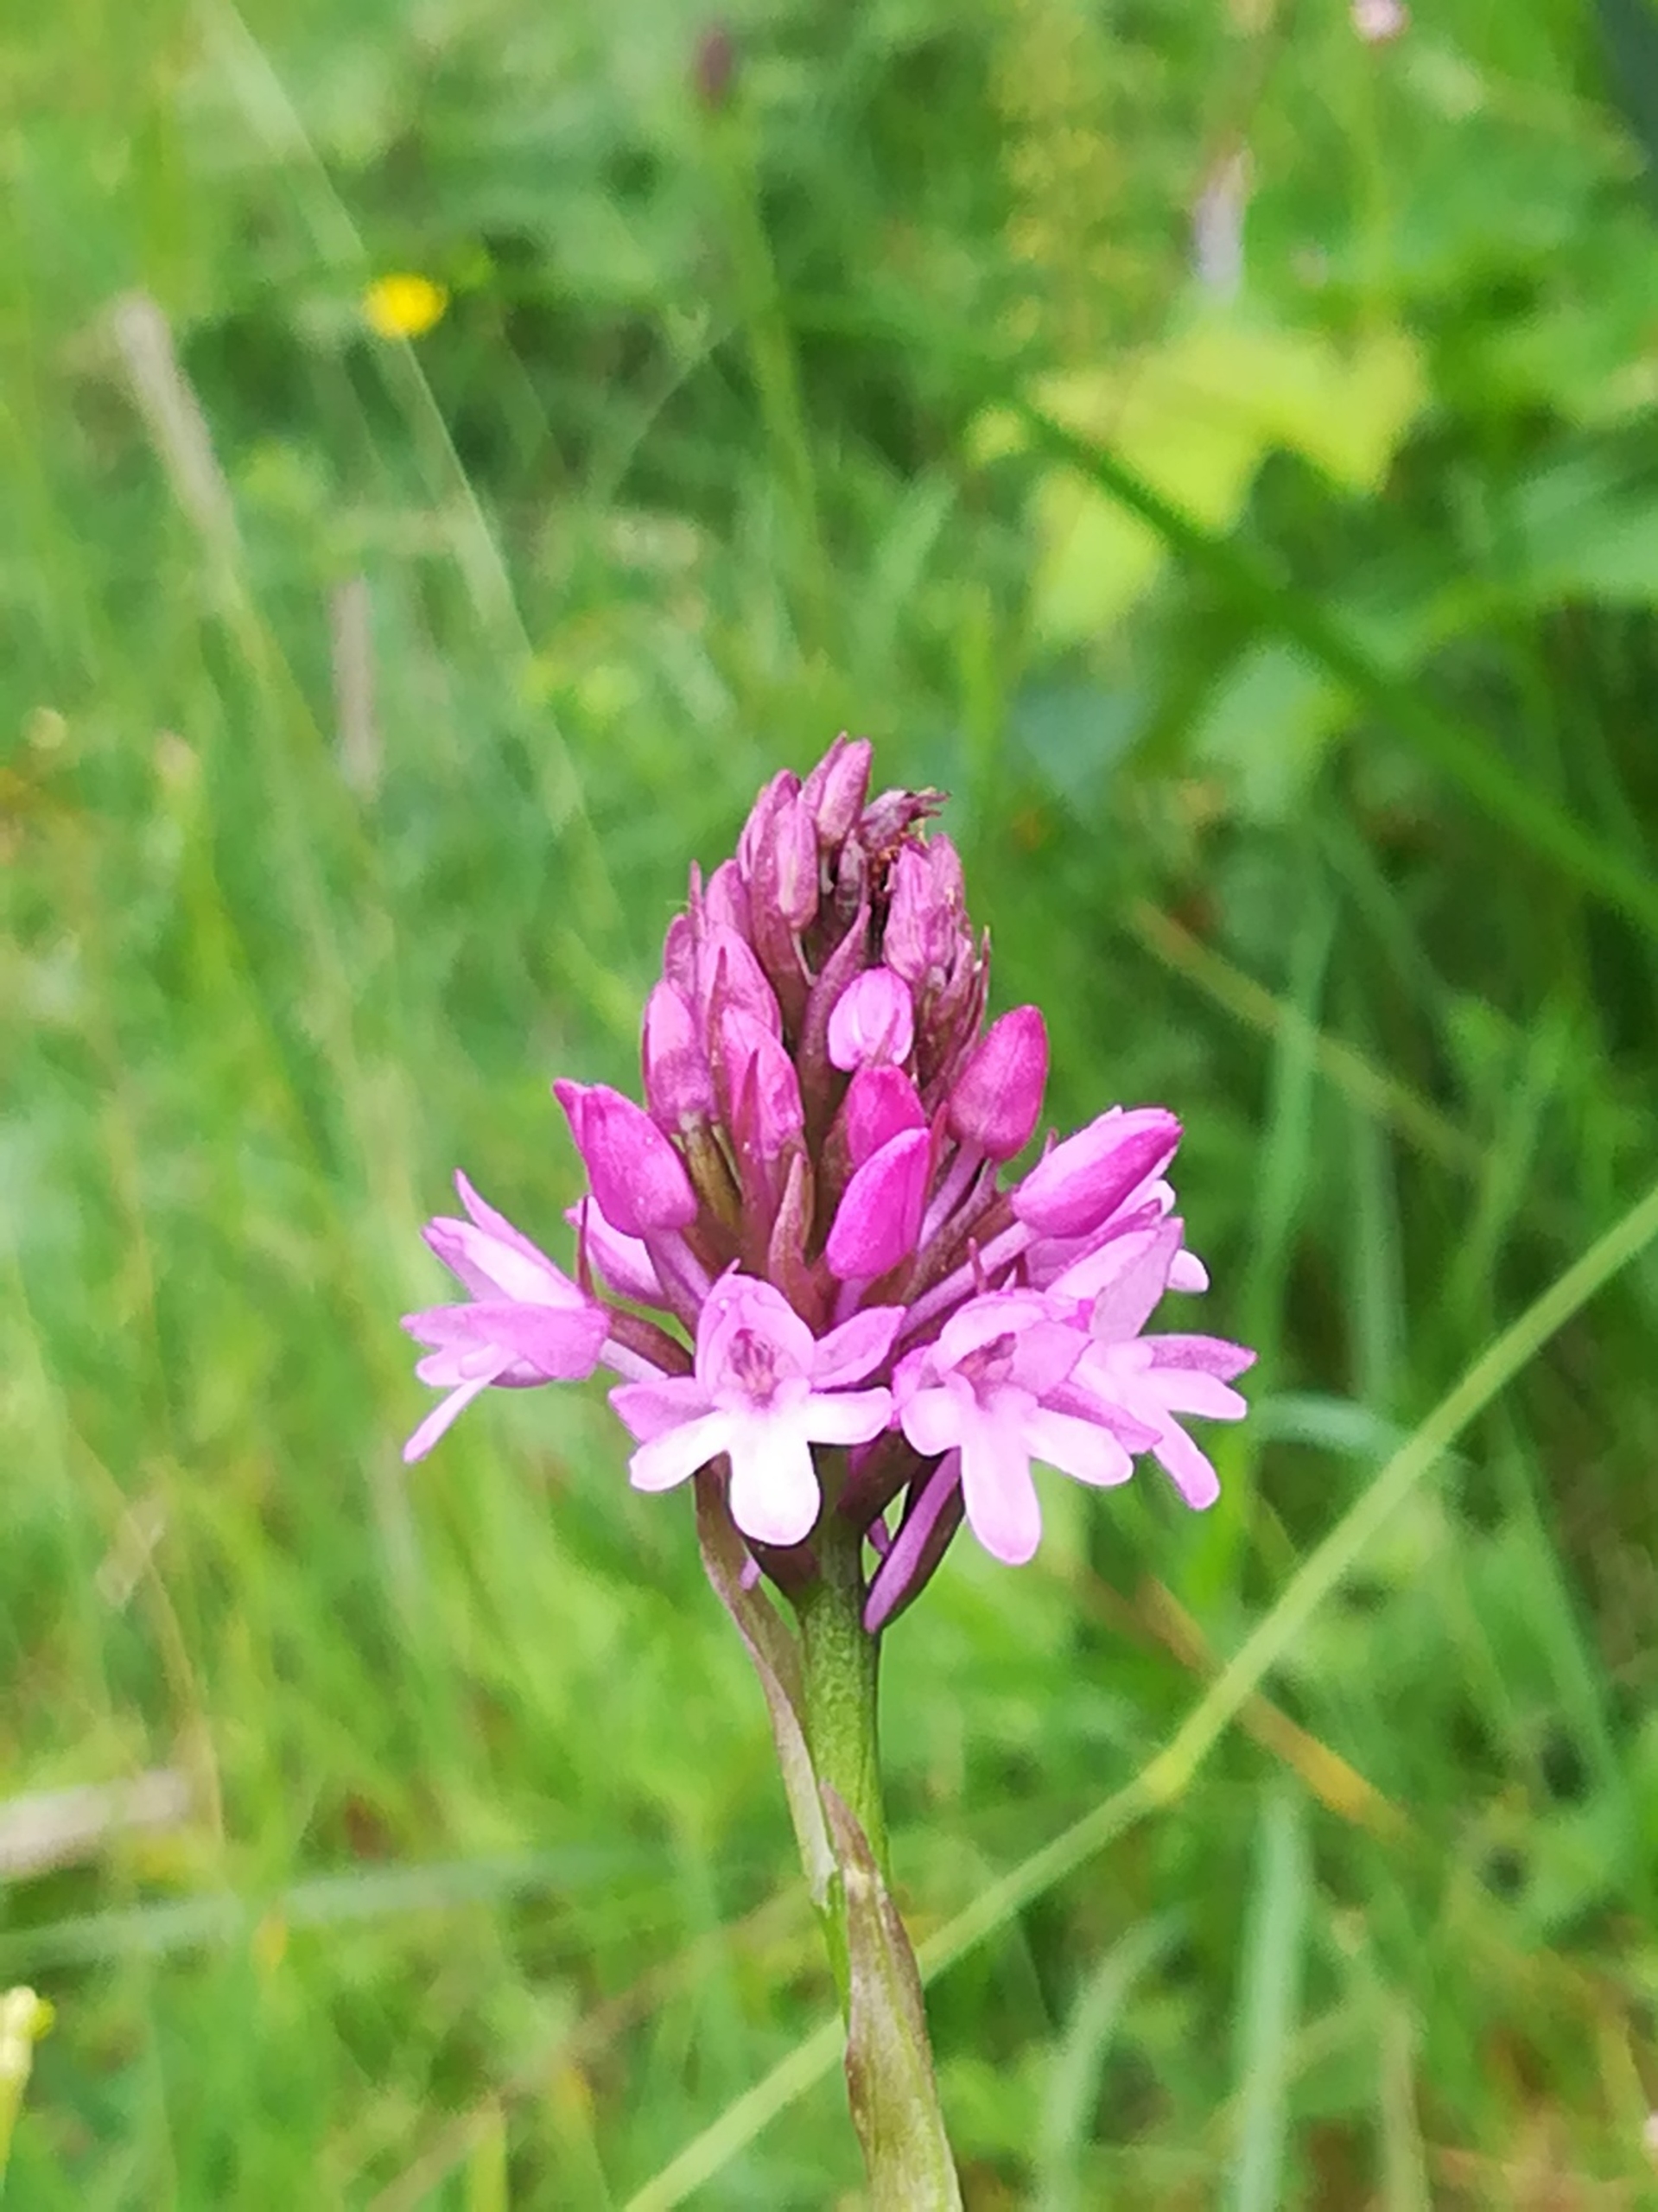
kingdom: Plantae
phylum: Tracheophyta
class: Liliopsida
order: Asparagales
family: Orchidaceae
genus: Anacamptis
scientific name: Anacamptis pyramidalis
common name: Horndrager
